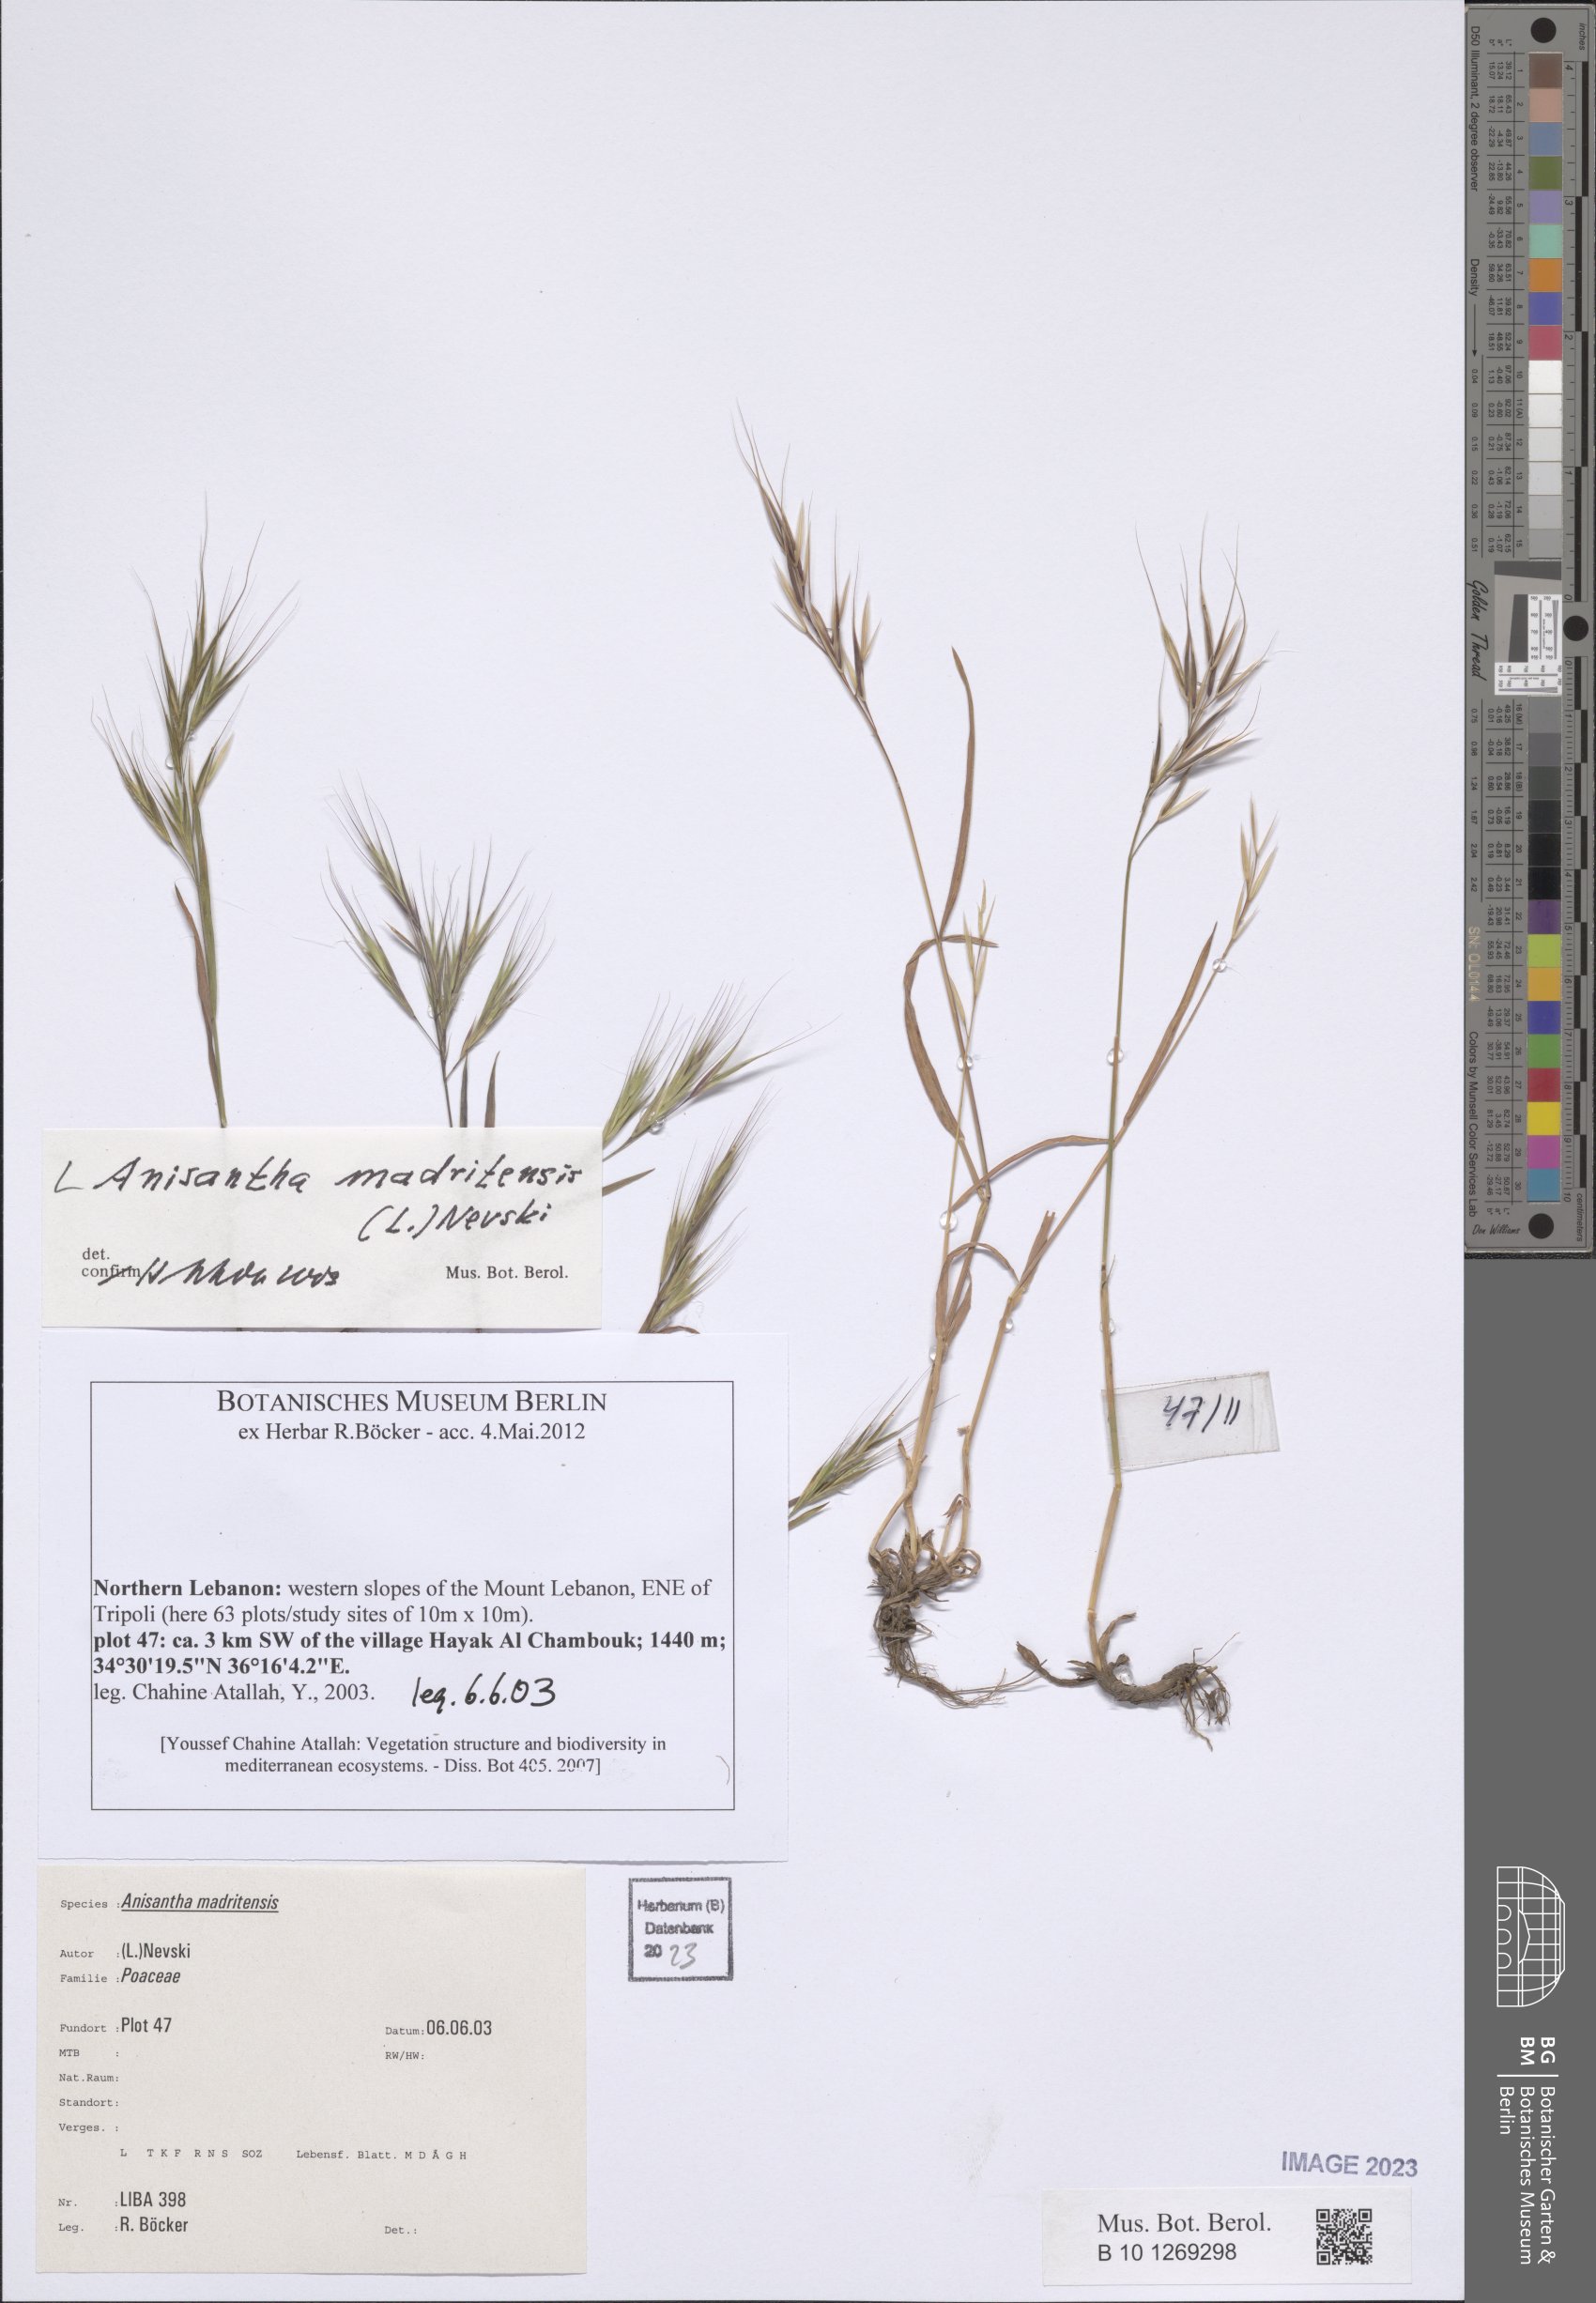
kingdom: Plantae
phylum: Tracheophyta
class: Liliopsida
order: Poales
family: Poaceae
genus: Bromus
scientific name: Bromus madritensis
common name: Compact brome
